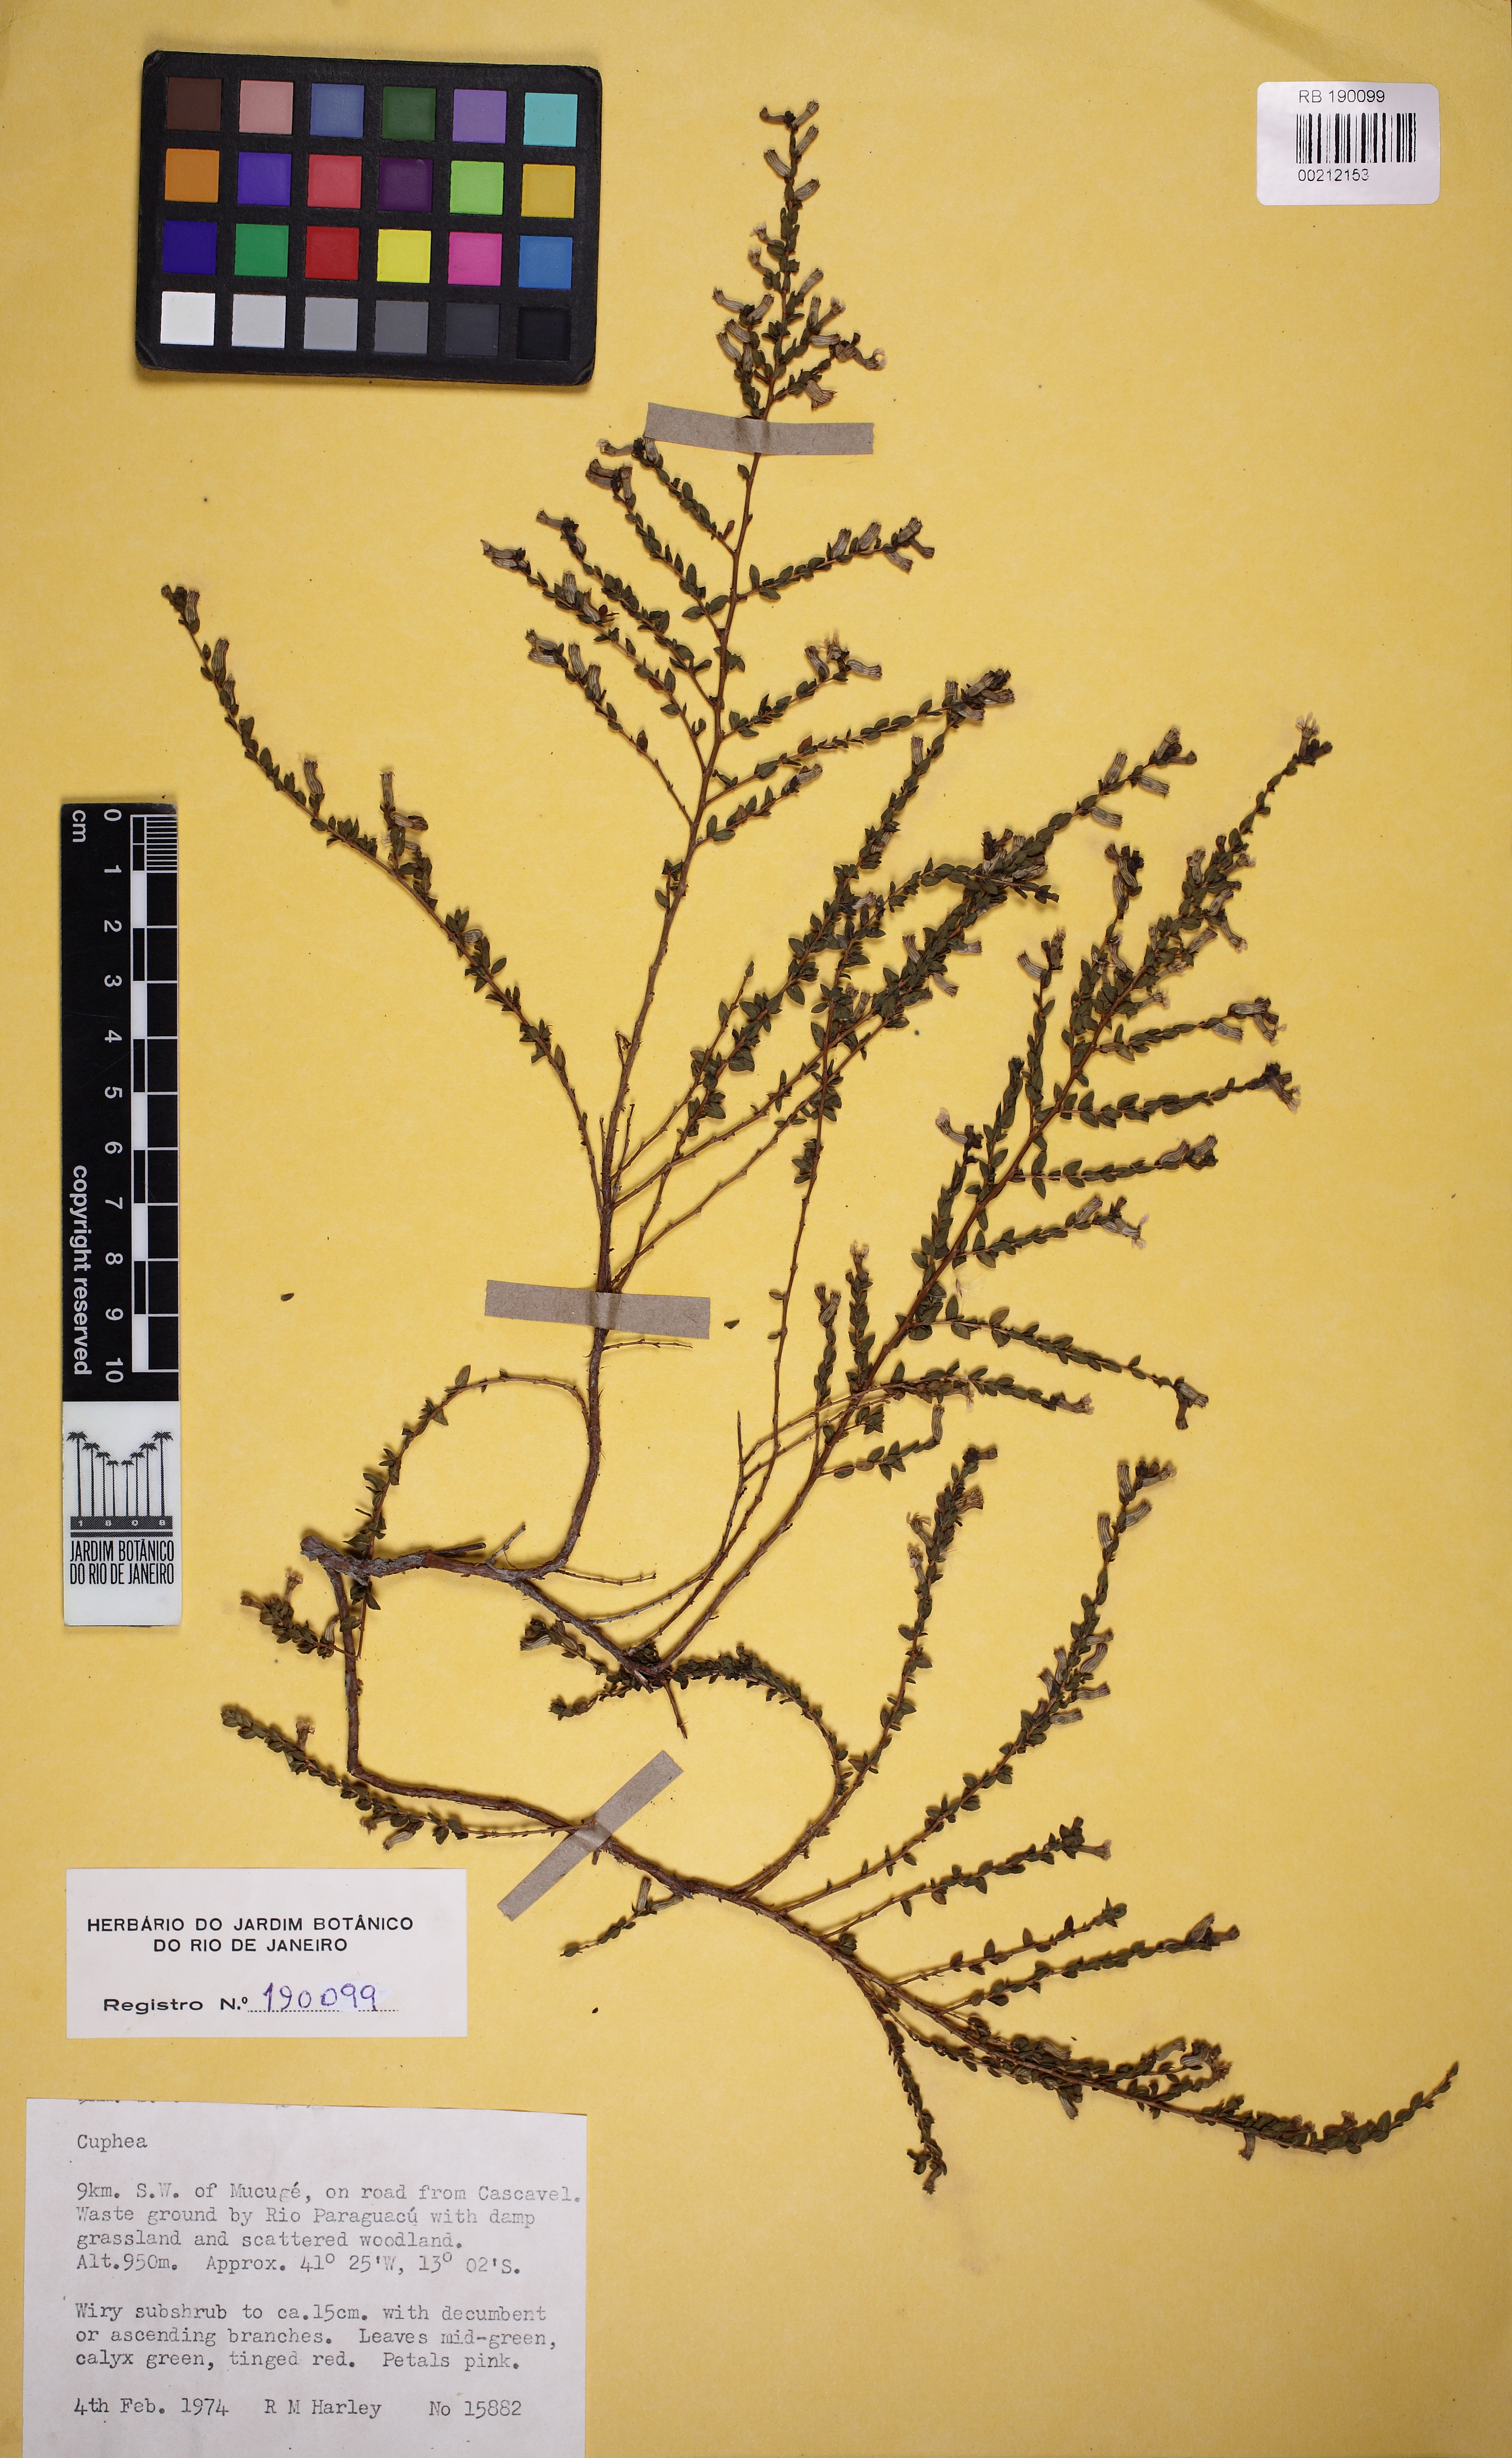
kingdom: Plantae
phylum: Tracheophyta
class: Magnoliopsida
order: Myrtales
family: Lythraceae
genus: Cuphea
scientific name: Cuphea
